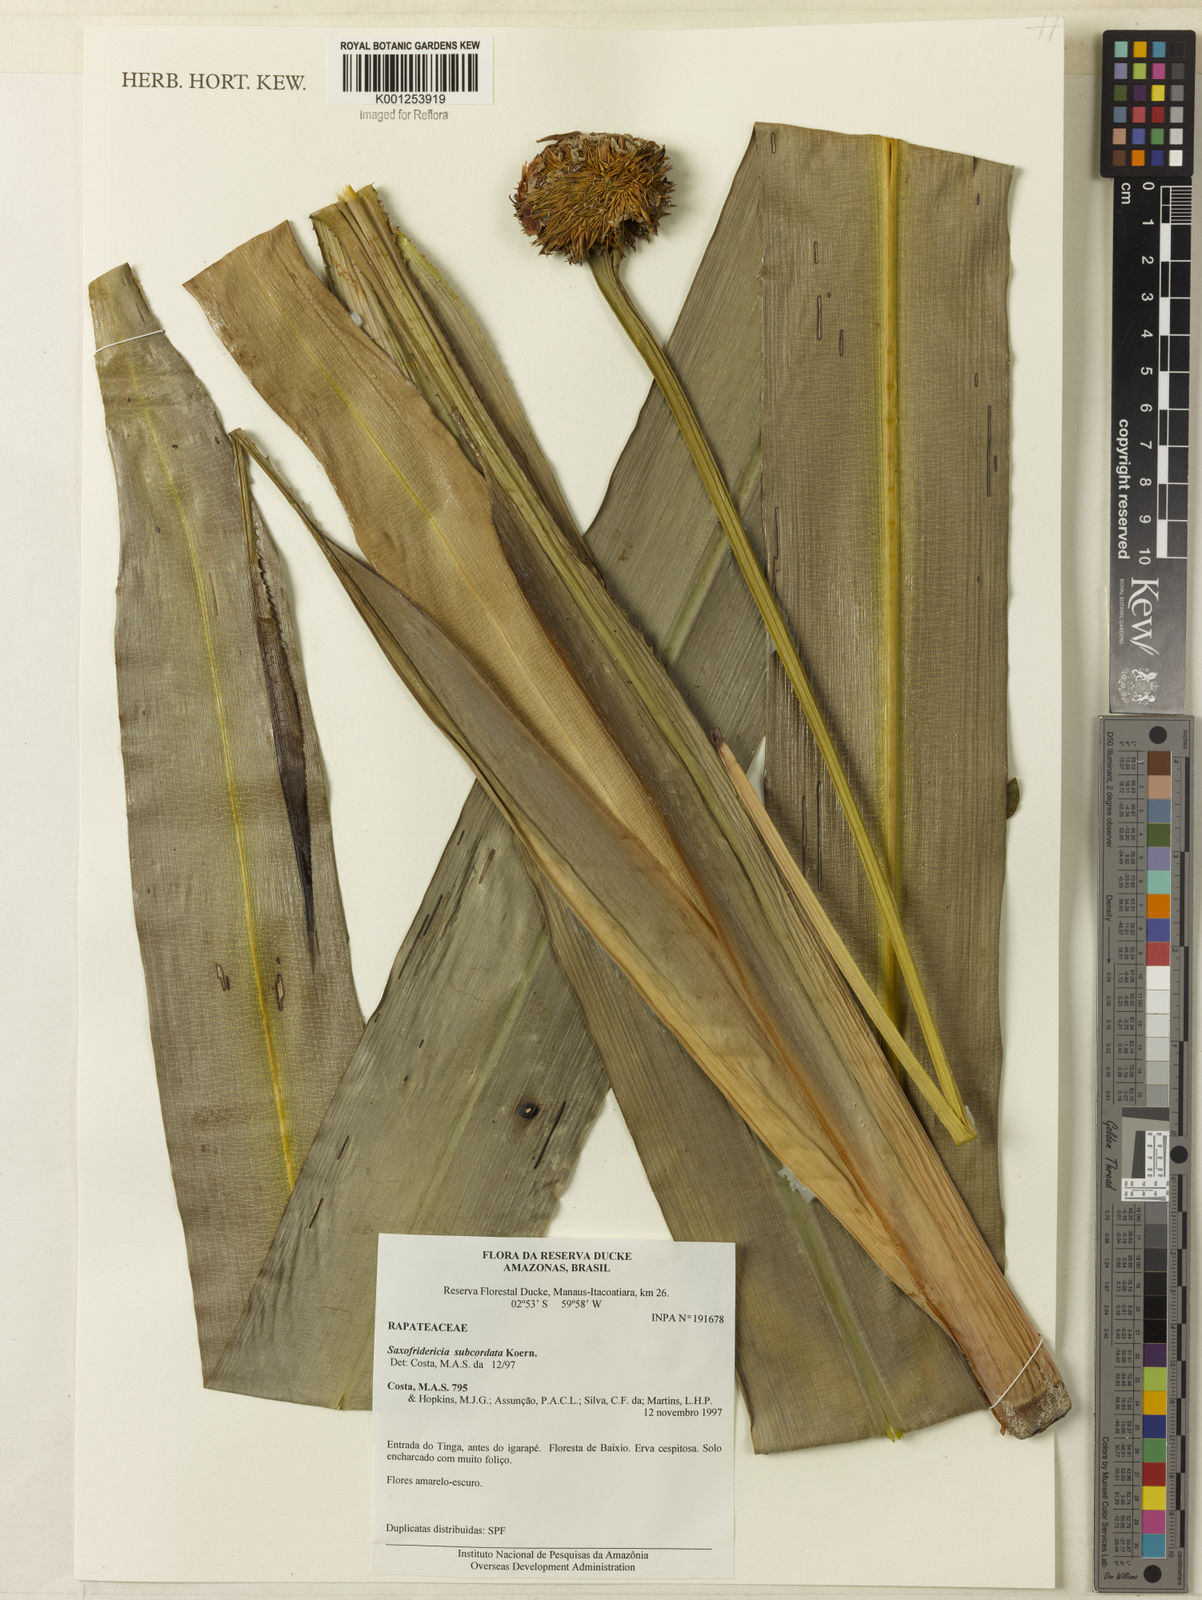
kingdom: Plantae
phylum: Tracheophyta
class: Liliopsida
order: Poales
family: Rapateaceae
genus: Saxofridericia
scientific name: Saxofridericia aculeata
